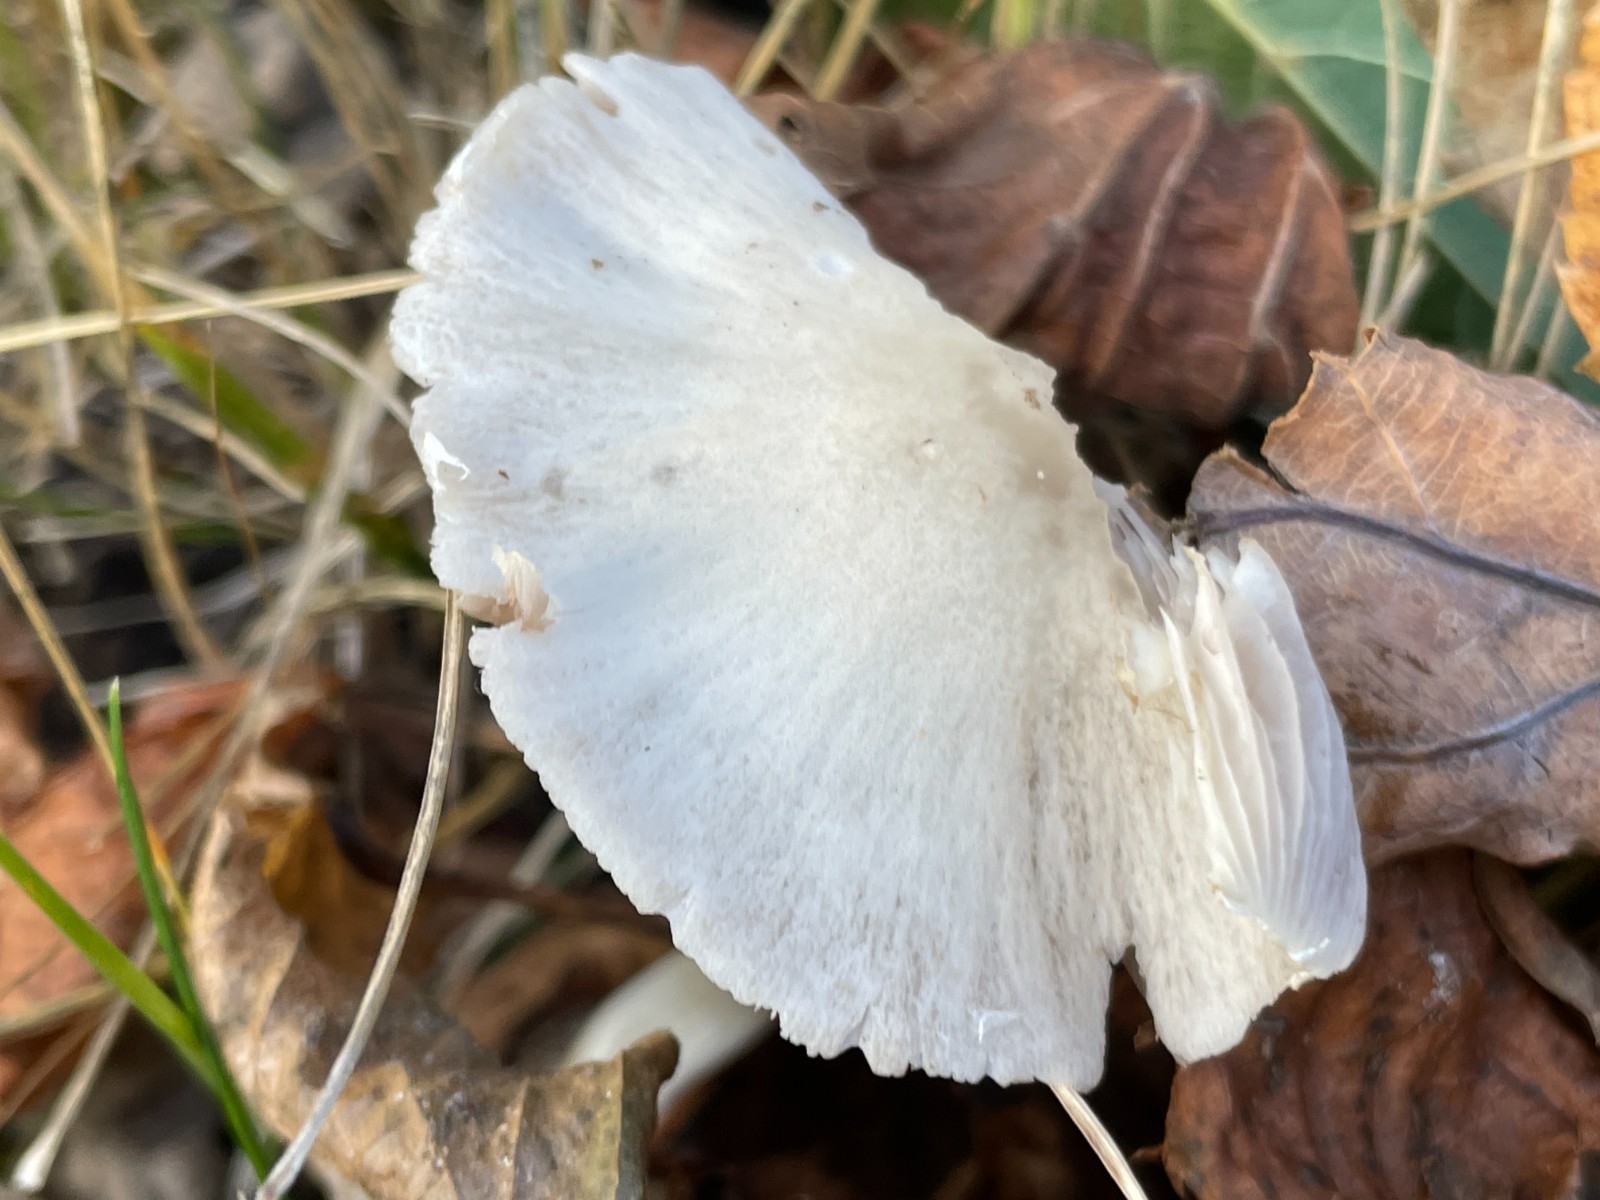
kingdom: Fungi
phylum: Basidiomycota
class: Agaricomycetes
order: Agaricales
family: Psathyrellaceae
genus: Candolleomyces
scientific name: Candolleomyces candolleanus
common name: Candolles mørkhat
